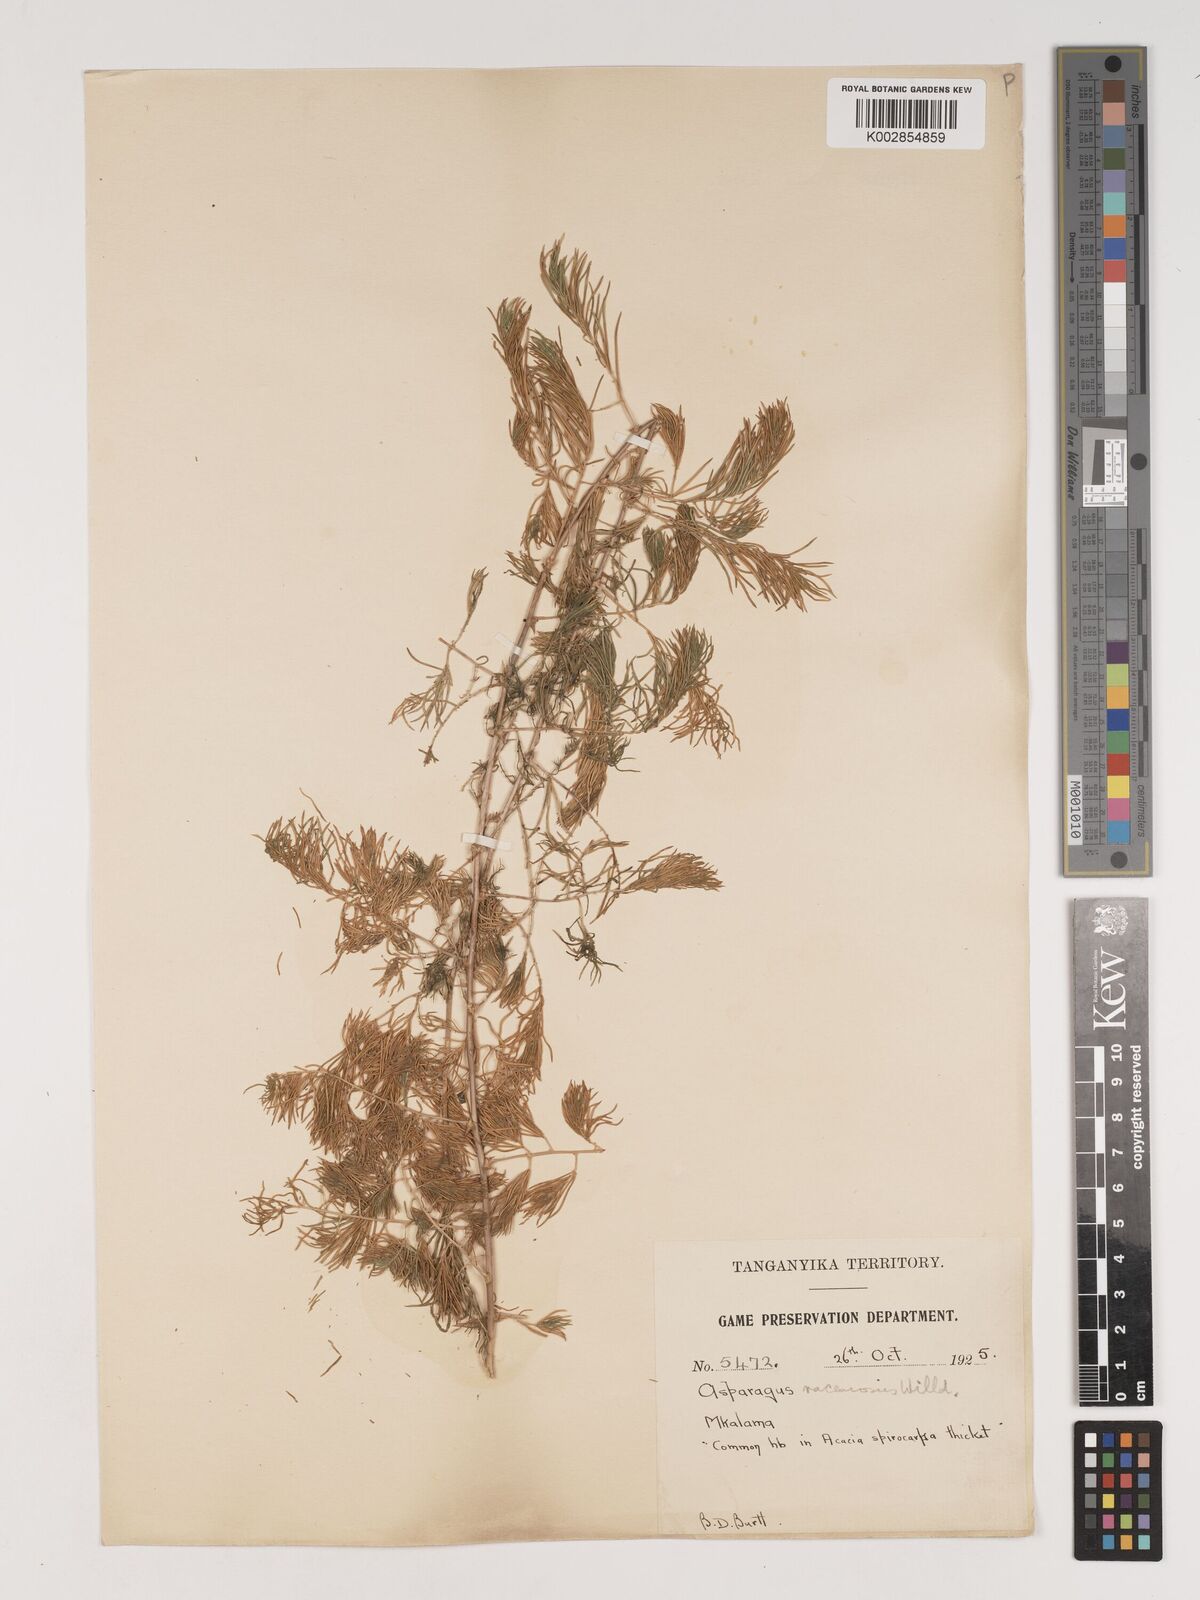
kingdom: Plantae
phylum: Tracheophyta
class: Liliopsida
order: Asparagales
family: Asparagaceae
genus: Asparagus
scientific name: Asparagus racemosus
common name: Asparagus-fern
